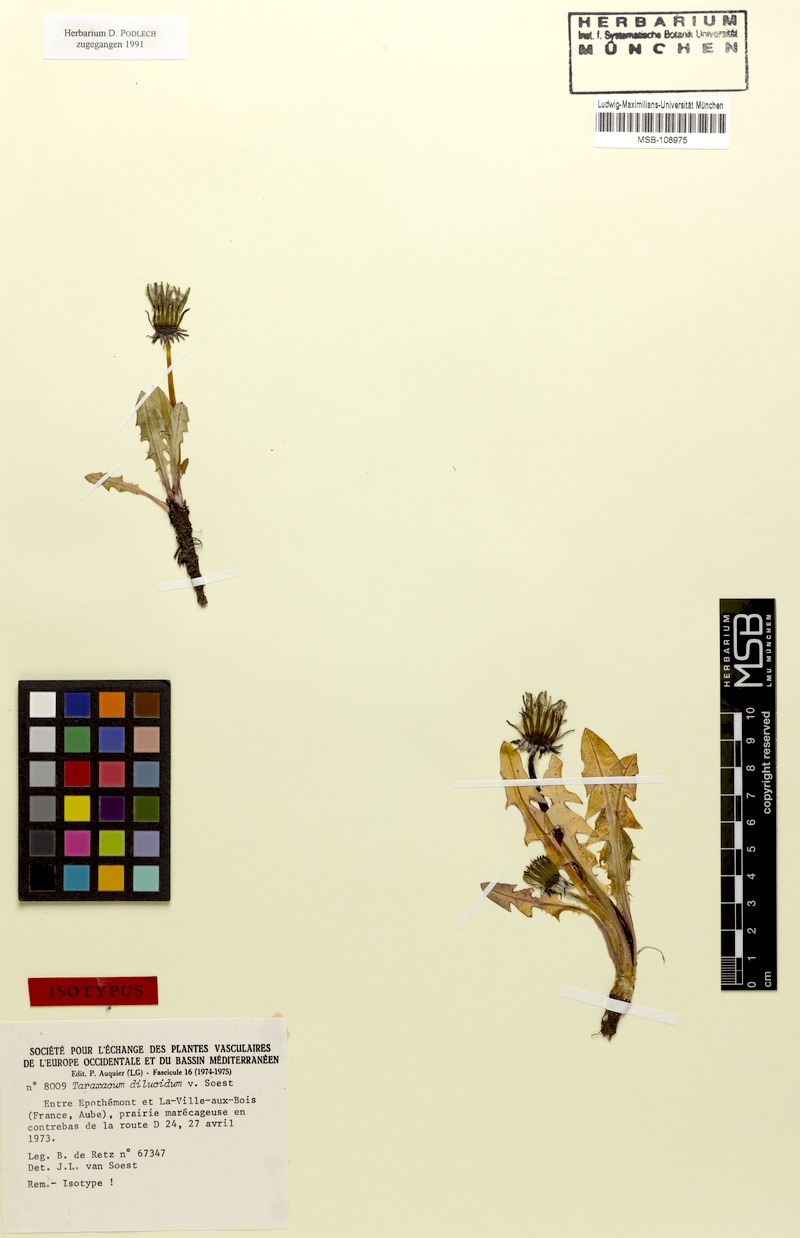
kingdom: Plantae
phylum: Tracheophyta
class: Magnoliopsida
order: Asterales
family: Asteraceae
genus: Taraxacum
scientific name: Taraxacum dilucidum
